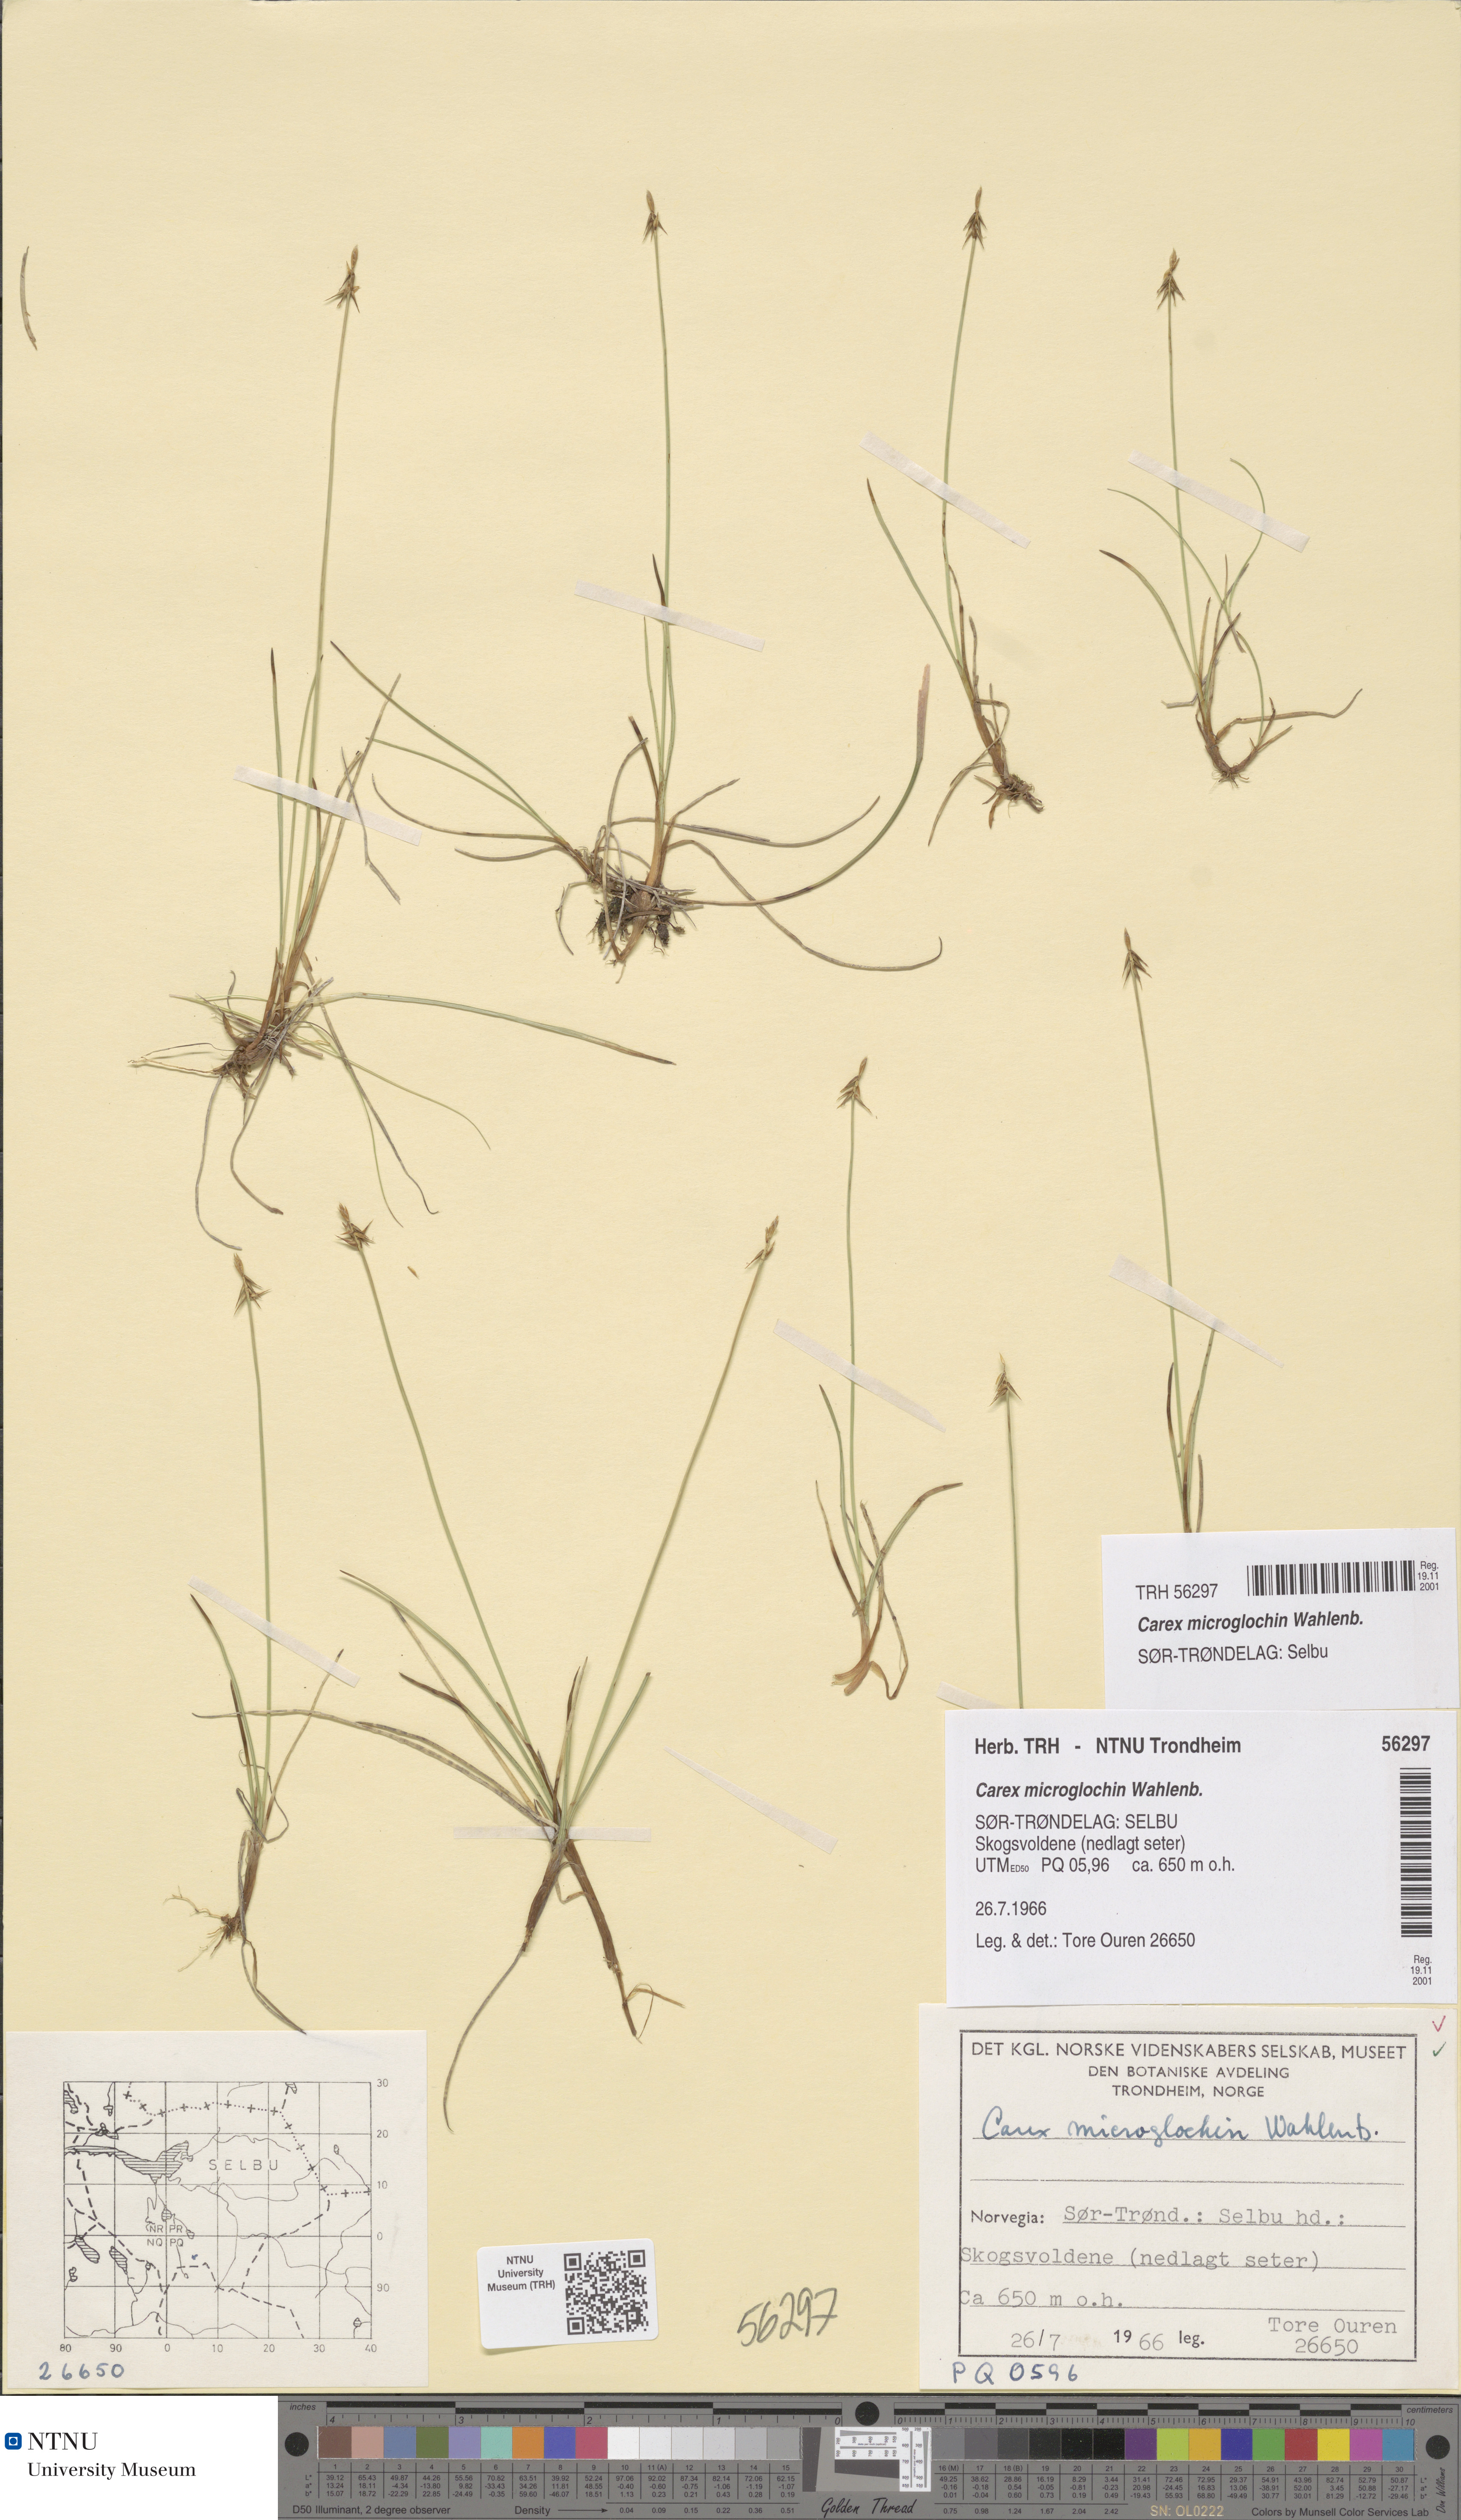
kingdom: Plantae
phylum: Tracheophyta
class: Liliopsida
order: Poales
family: Cyperaceae
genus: Carex
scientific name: Carex microglochin
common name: Bristle sedge
